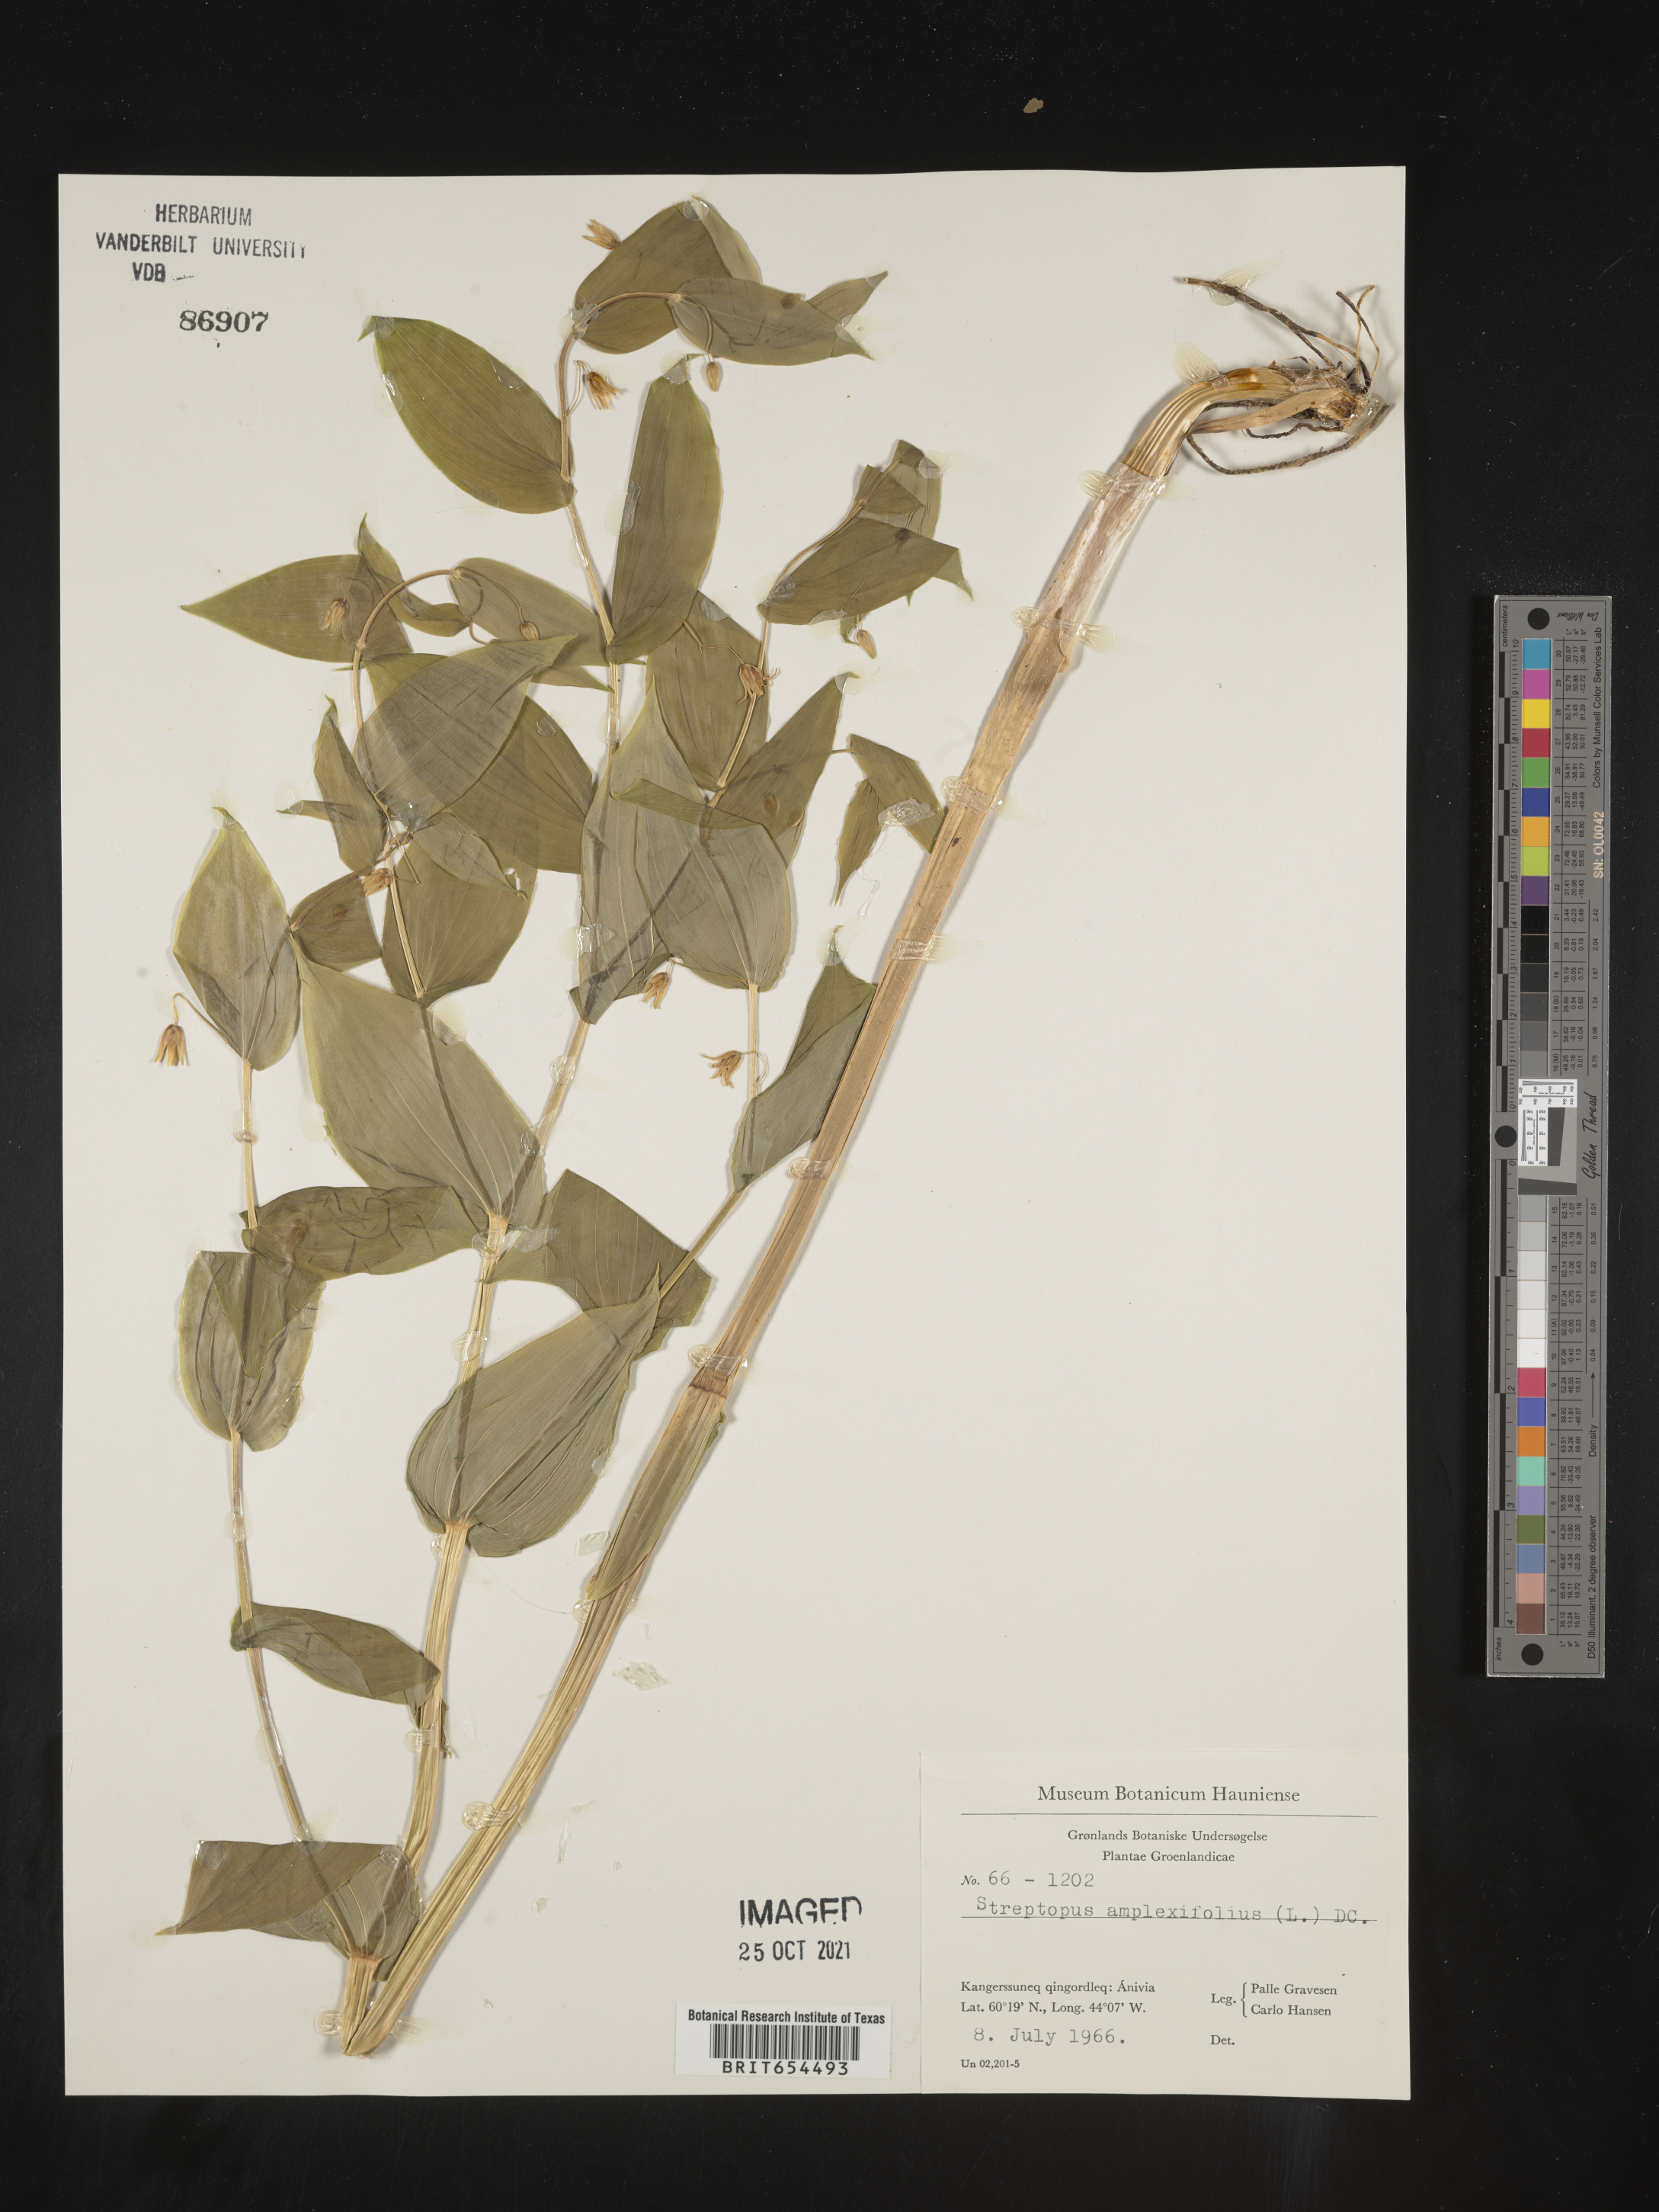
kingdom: Plantae
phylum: Tracheophyta
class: Liliopsida
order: Liliales
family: Liliaceae
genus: Streptopus
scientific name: Streptopus
